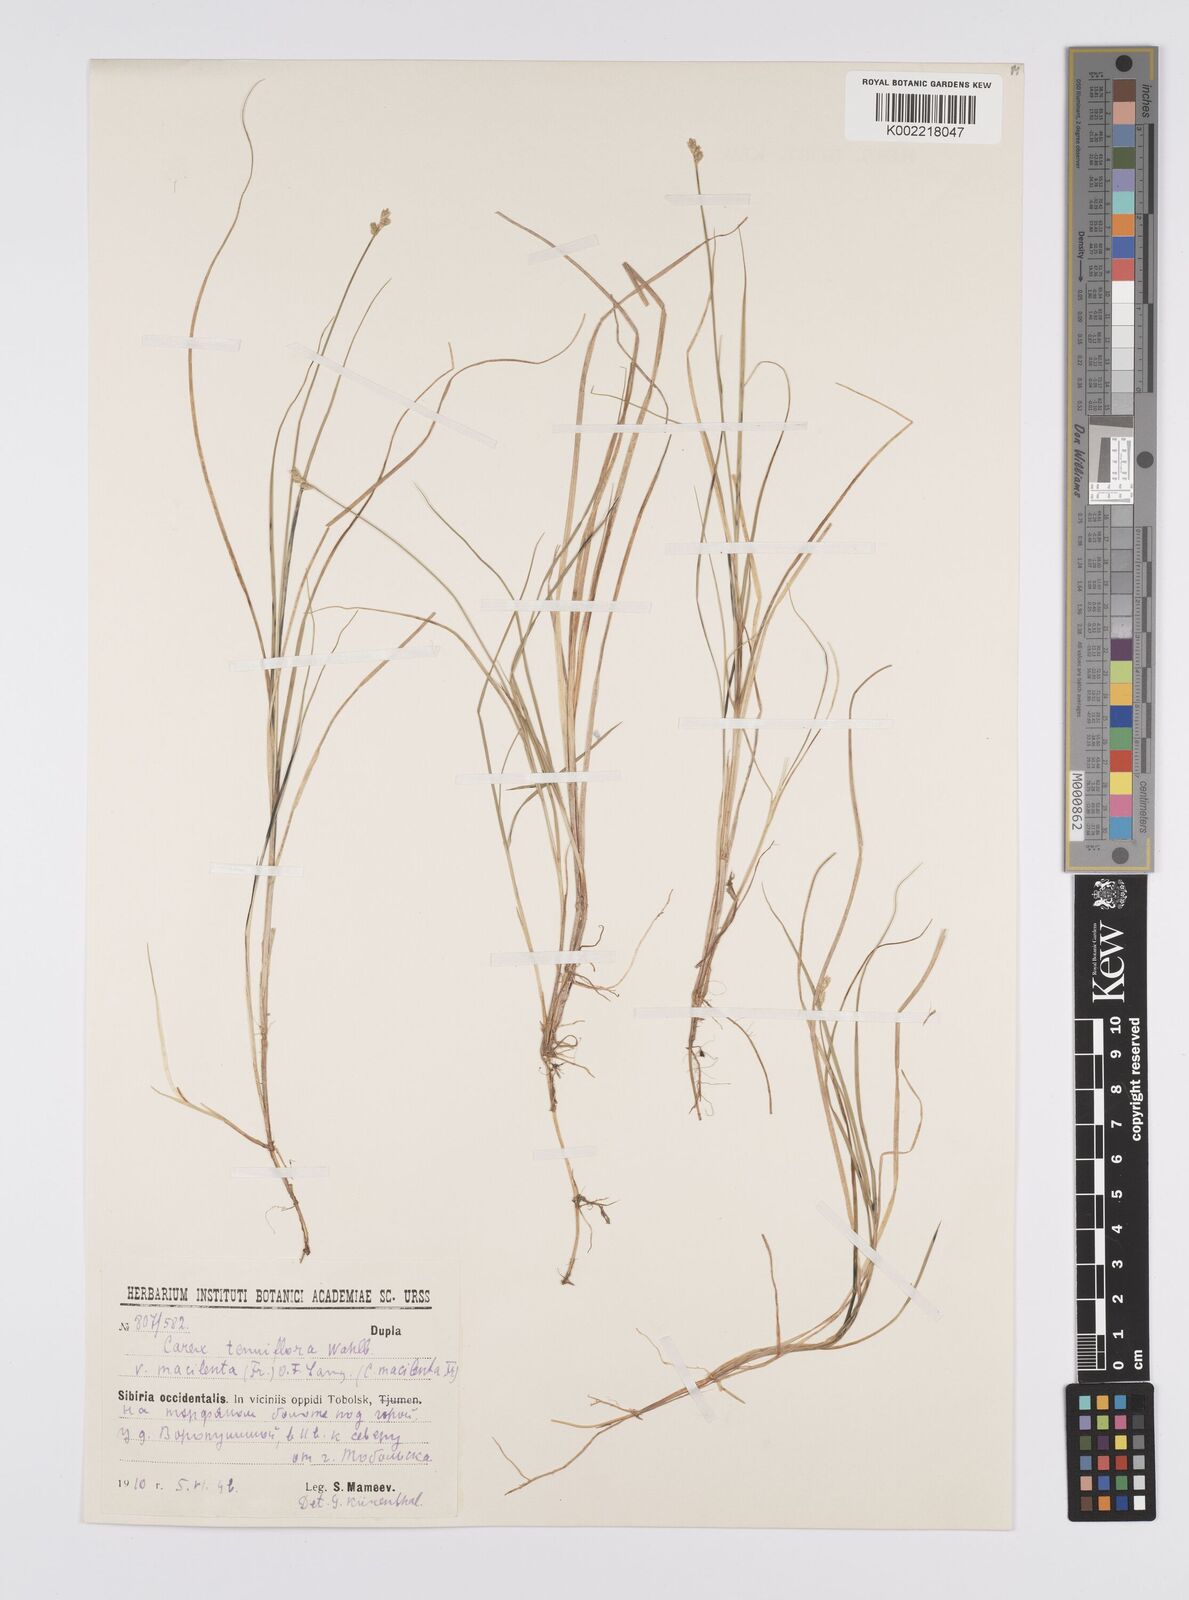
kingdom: Plantae
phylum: Tracheophyta
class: Liliopsida
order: Poales
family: Cyperaceae
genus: Carex
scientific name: Carex tenuiflora
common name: Sparse-flowered sedge
